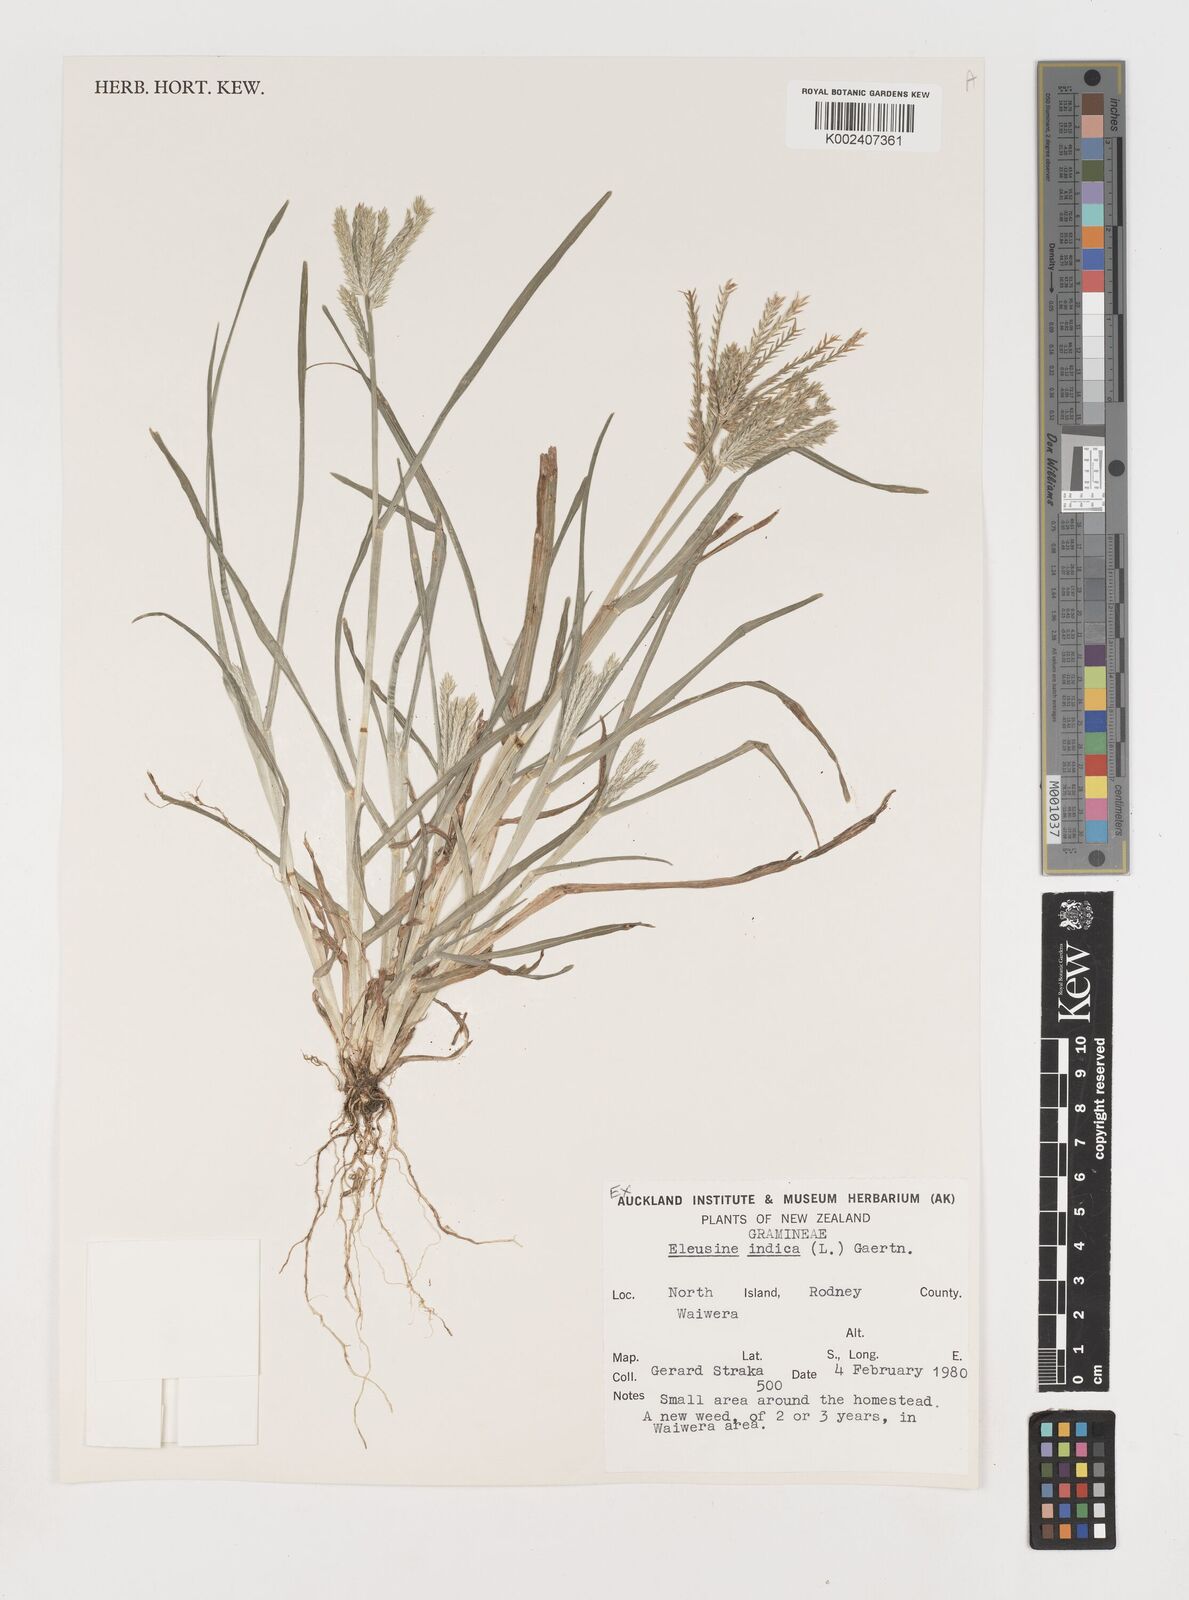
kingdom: Plantae
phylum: Tracheophyta
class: Liliopsida
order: Poales
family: Poaceae
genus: Eleusine
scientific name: Eleusine indica
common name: Yard-grass
